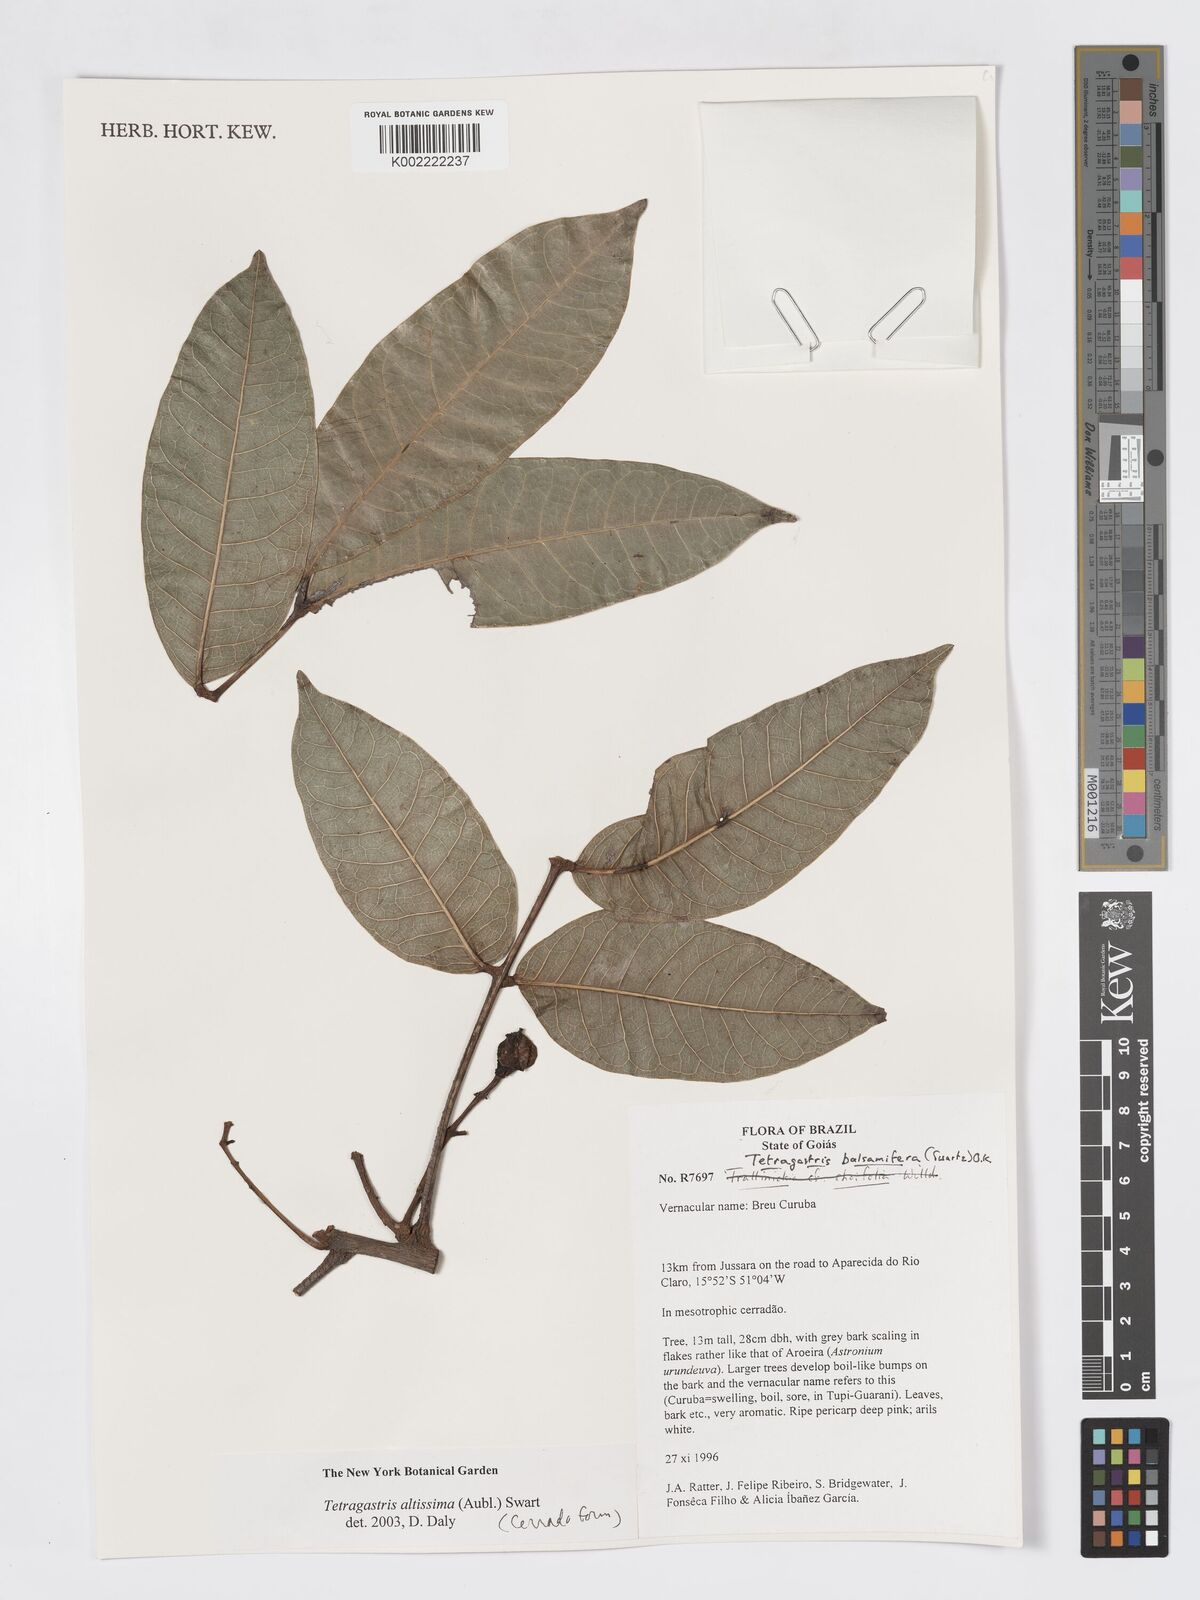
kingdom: Plantae
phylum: Tracheophyta
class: Magnoliopsida
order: Sapindales
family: Burseraceae
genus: Tetragastris
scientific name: Tetragastris altissima
